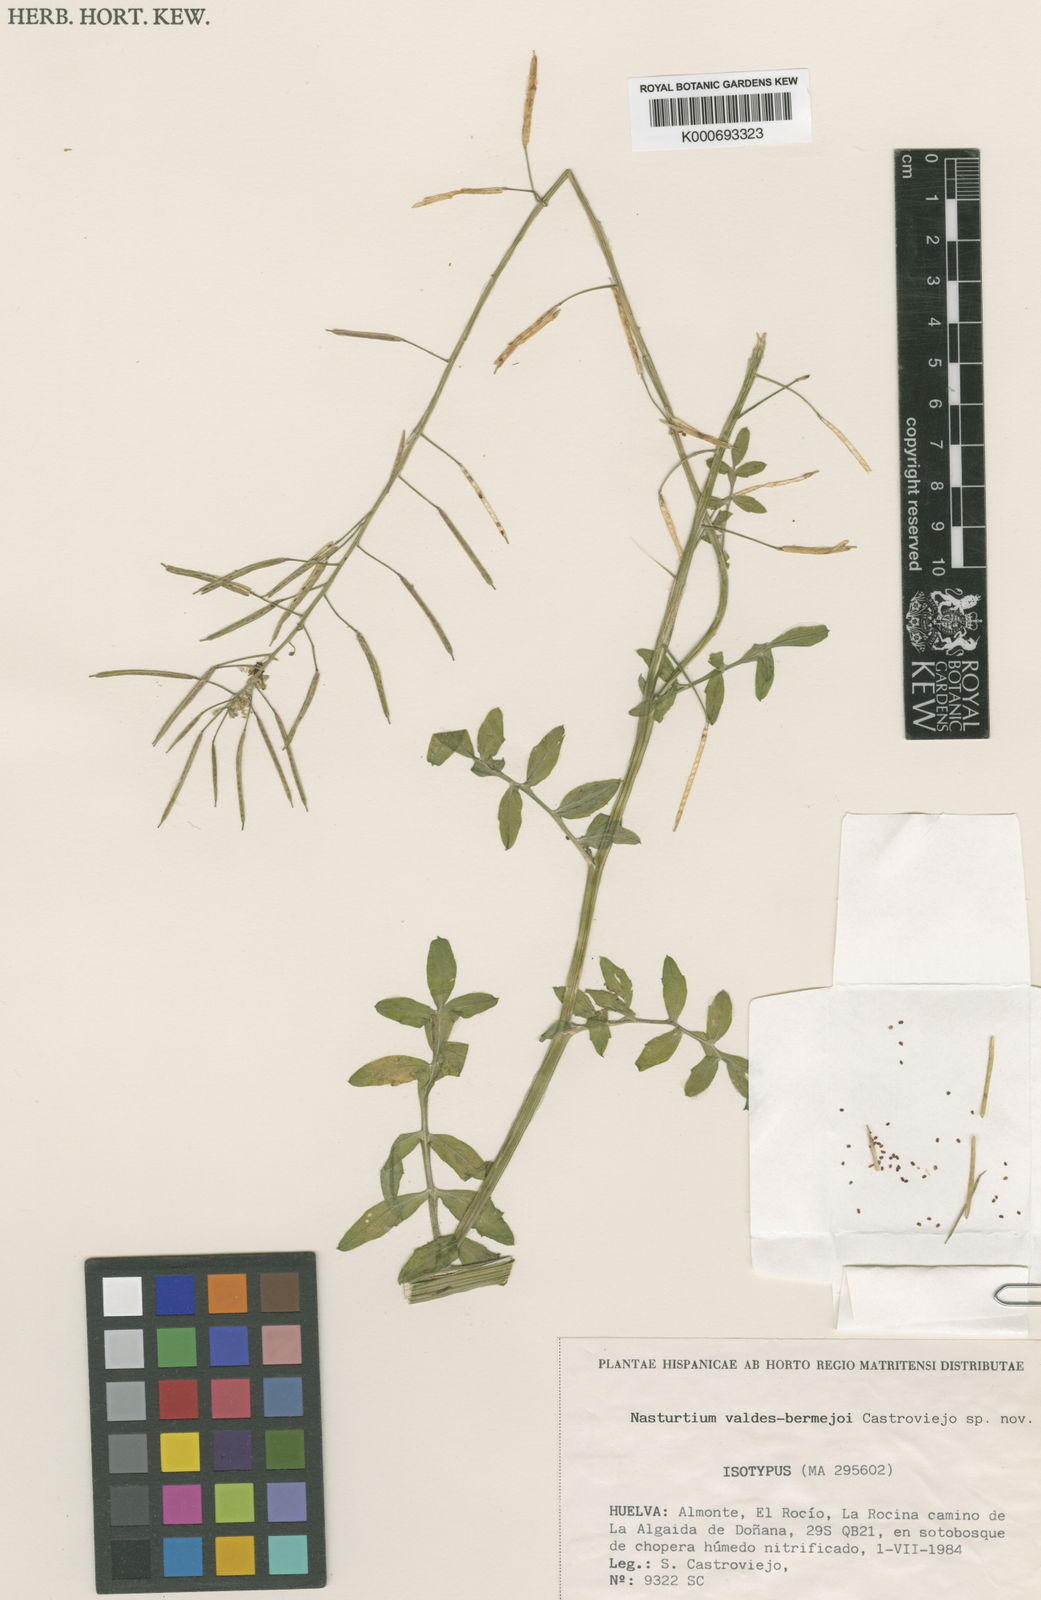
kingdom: Plantae
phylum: Tracheophyta
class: Magnoliopsida
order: Brassicales
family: Brassicaceae
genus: Rorippa
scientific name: Rorippa valdes-bermejoi
